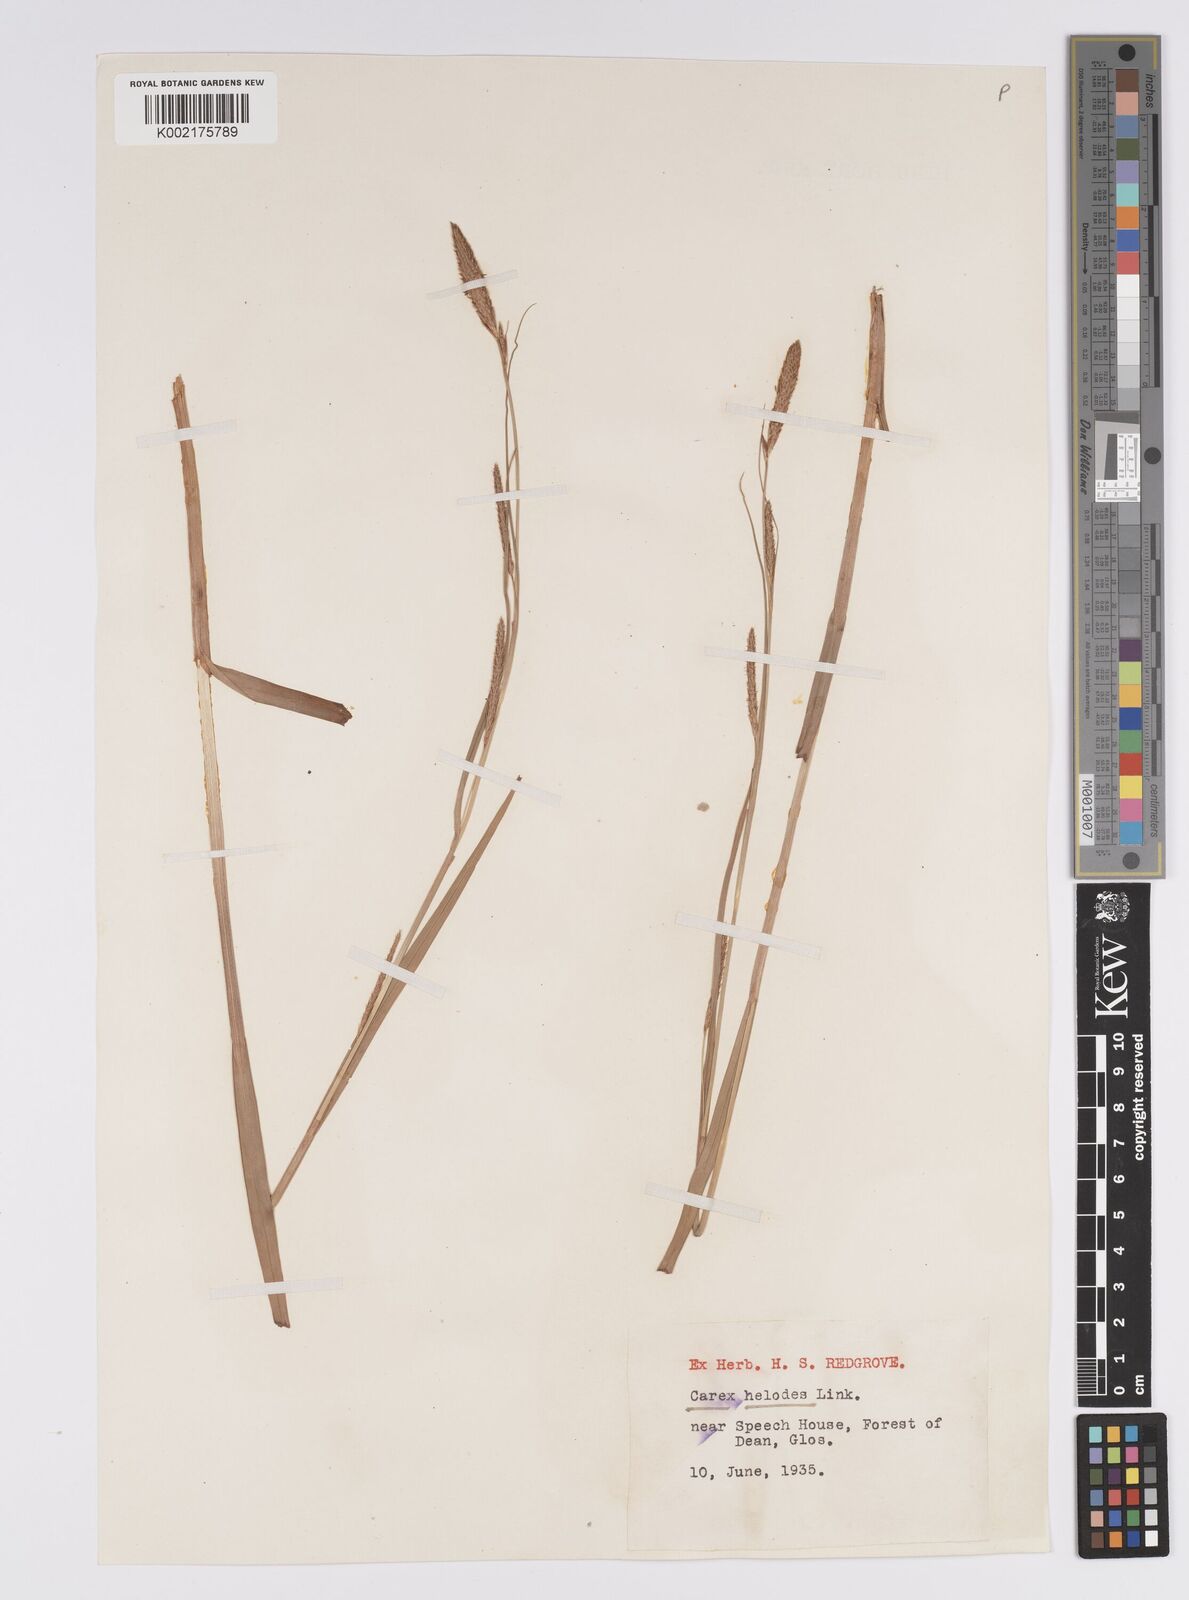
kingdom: Plantae
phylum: Tracheophyta
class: Liliopsida
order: Poales
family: Cyperaceae
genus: Carex
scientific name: Carex laevigata
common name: Smooth-stalked sedge
